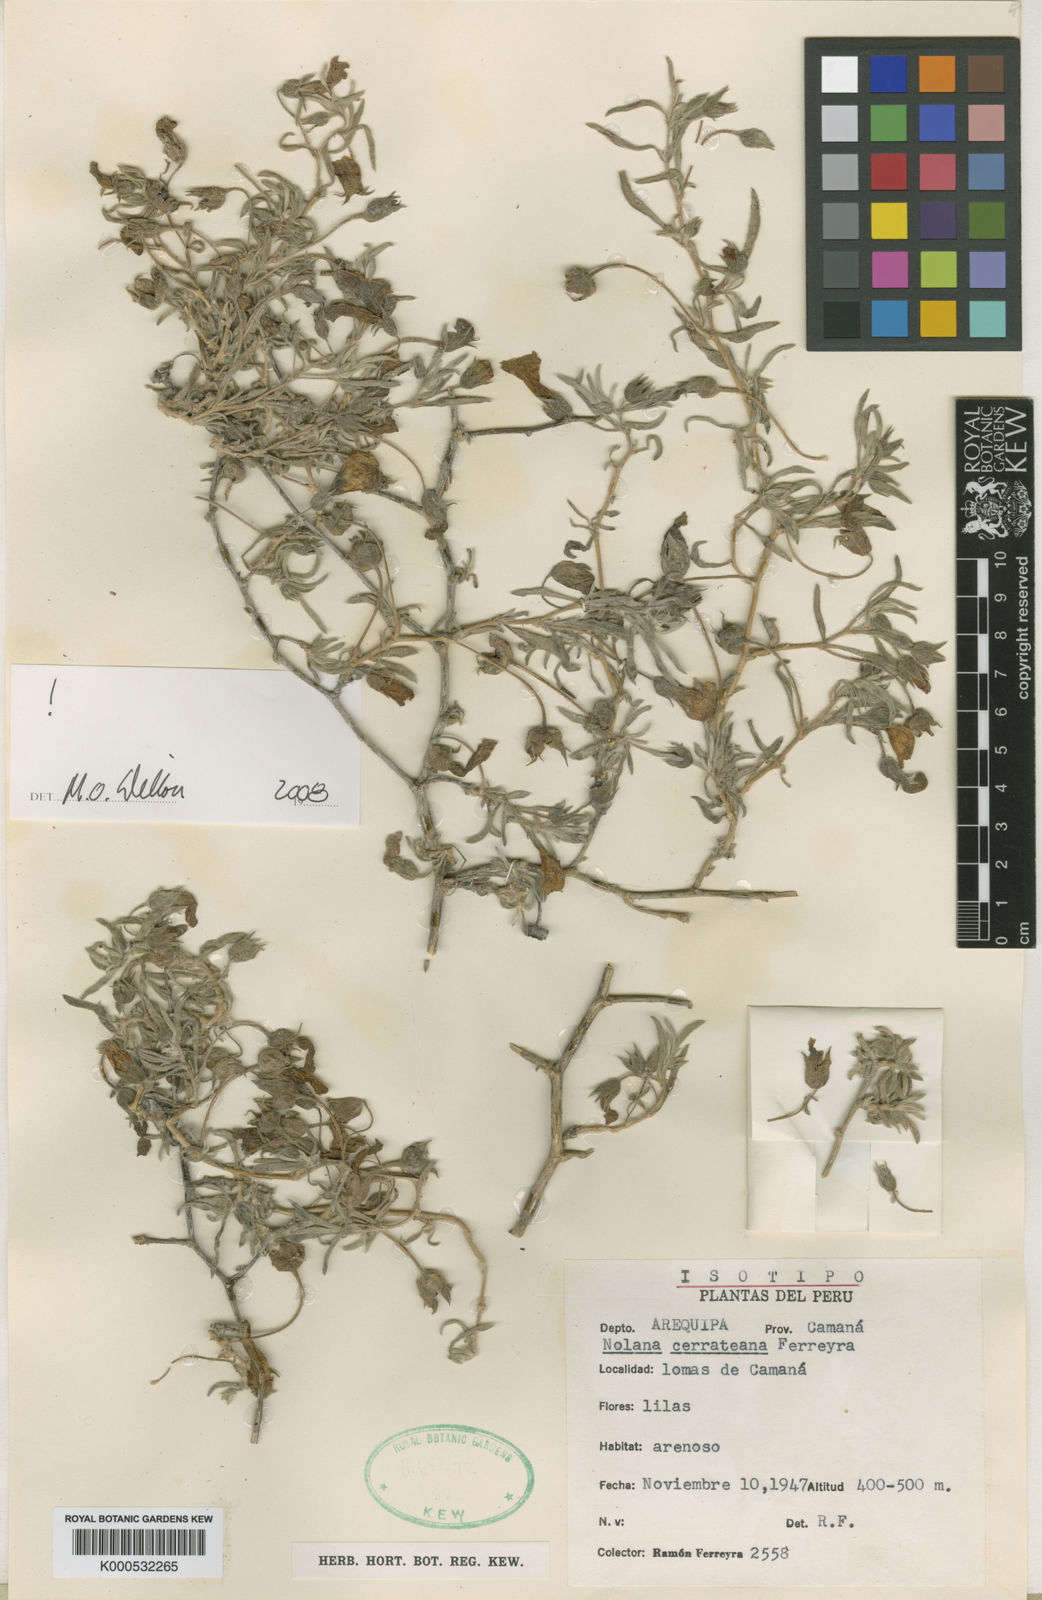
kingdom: Plantae
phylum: Tracheophyta
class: Magnoliopsida
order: Solanales
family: Solanaceae
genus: Nolana
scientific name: Nolana crassulifolia
